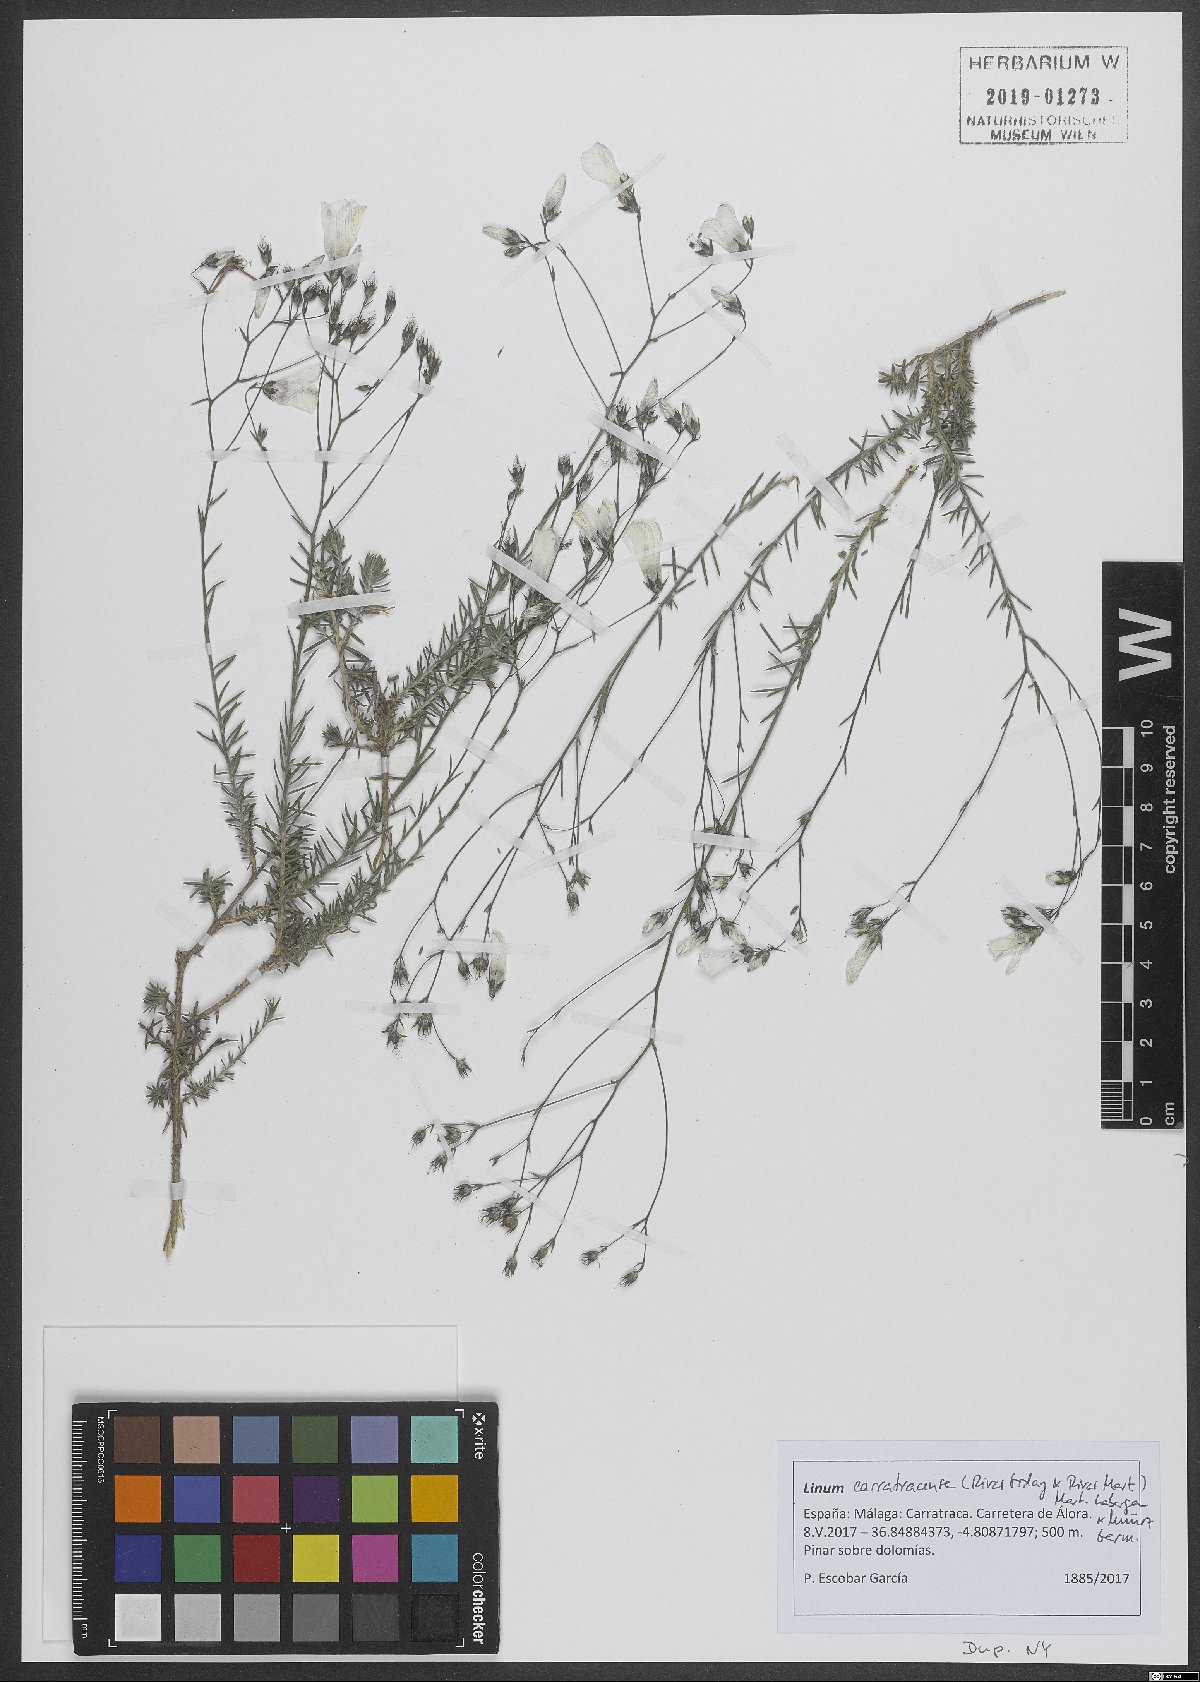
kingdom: Plantae
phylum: Tracheophyta
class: Magnoliopsida
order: Malpighiales
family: Linaceae
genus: Linum
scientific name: Linum carratracense
